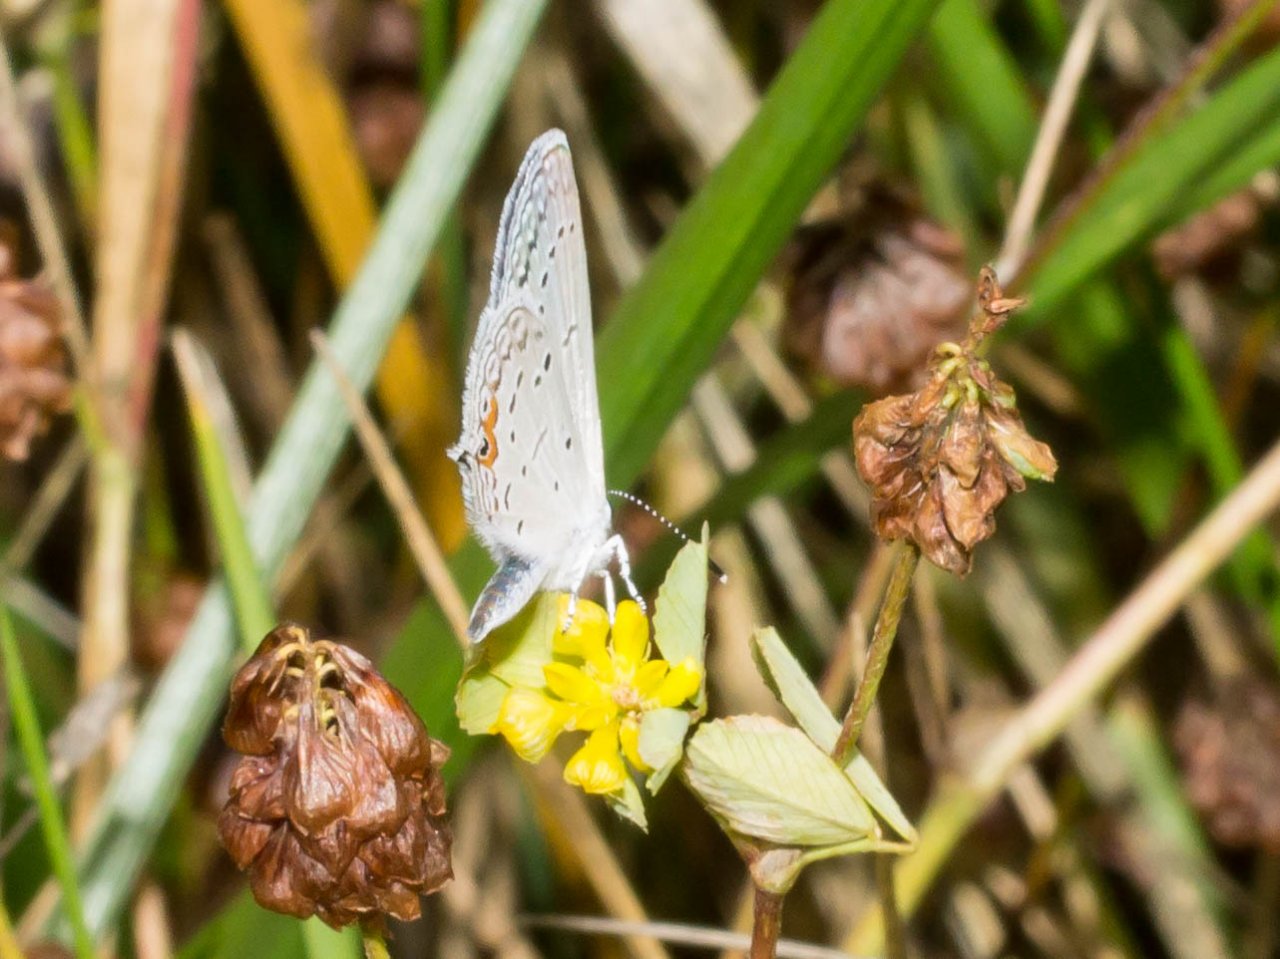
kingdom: Animalia
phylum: Arthropoda
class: Insecta
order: Lepidoptera
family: Lycaenidae
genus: Elkalyce
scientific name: Elkalyce comyntas
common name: Eastern Tailed-Blue
